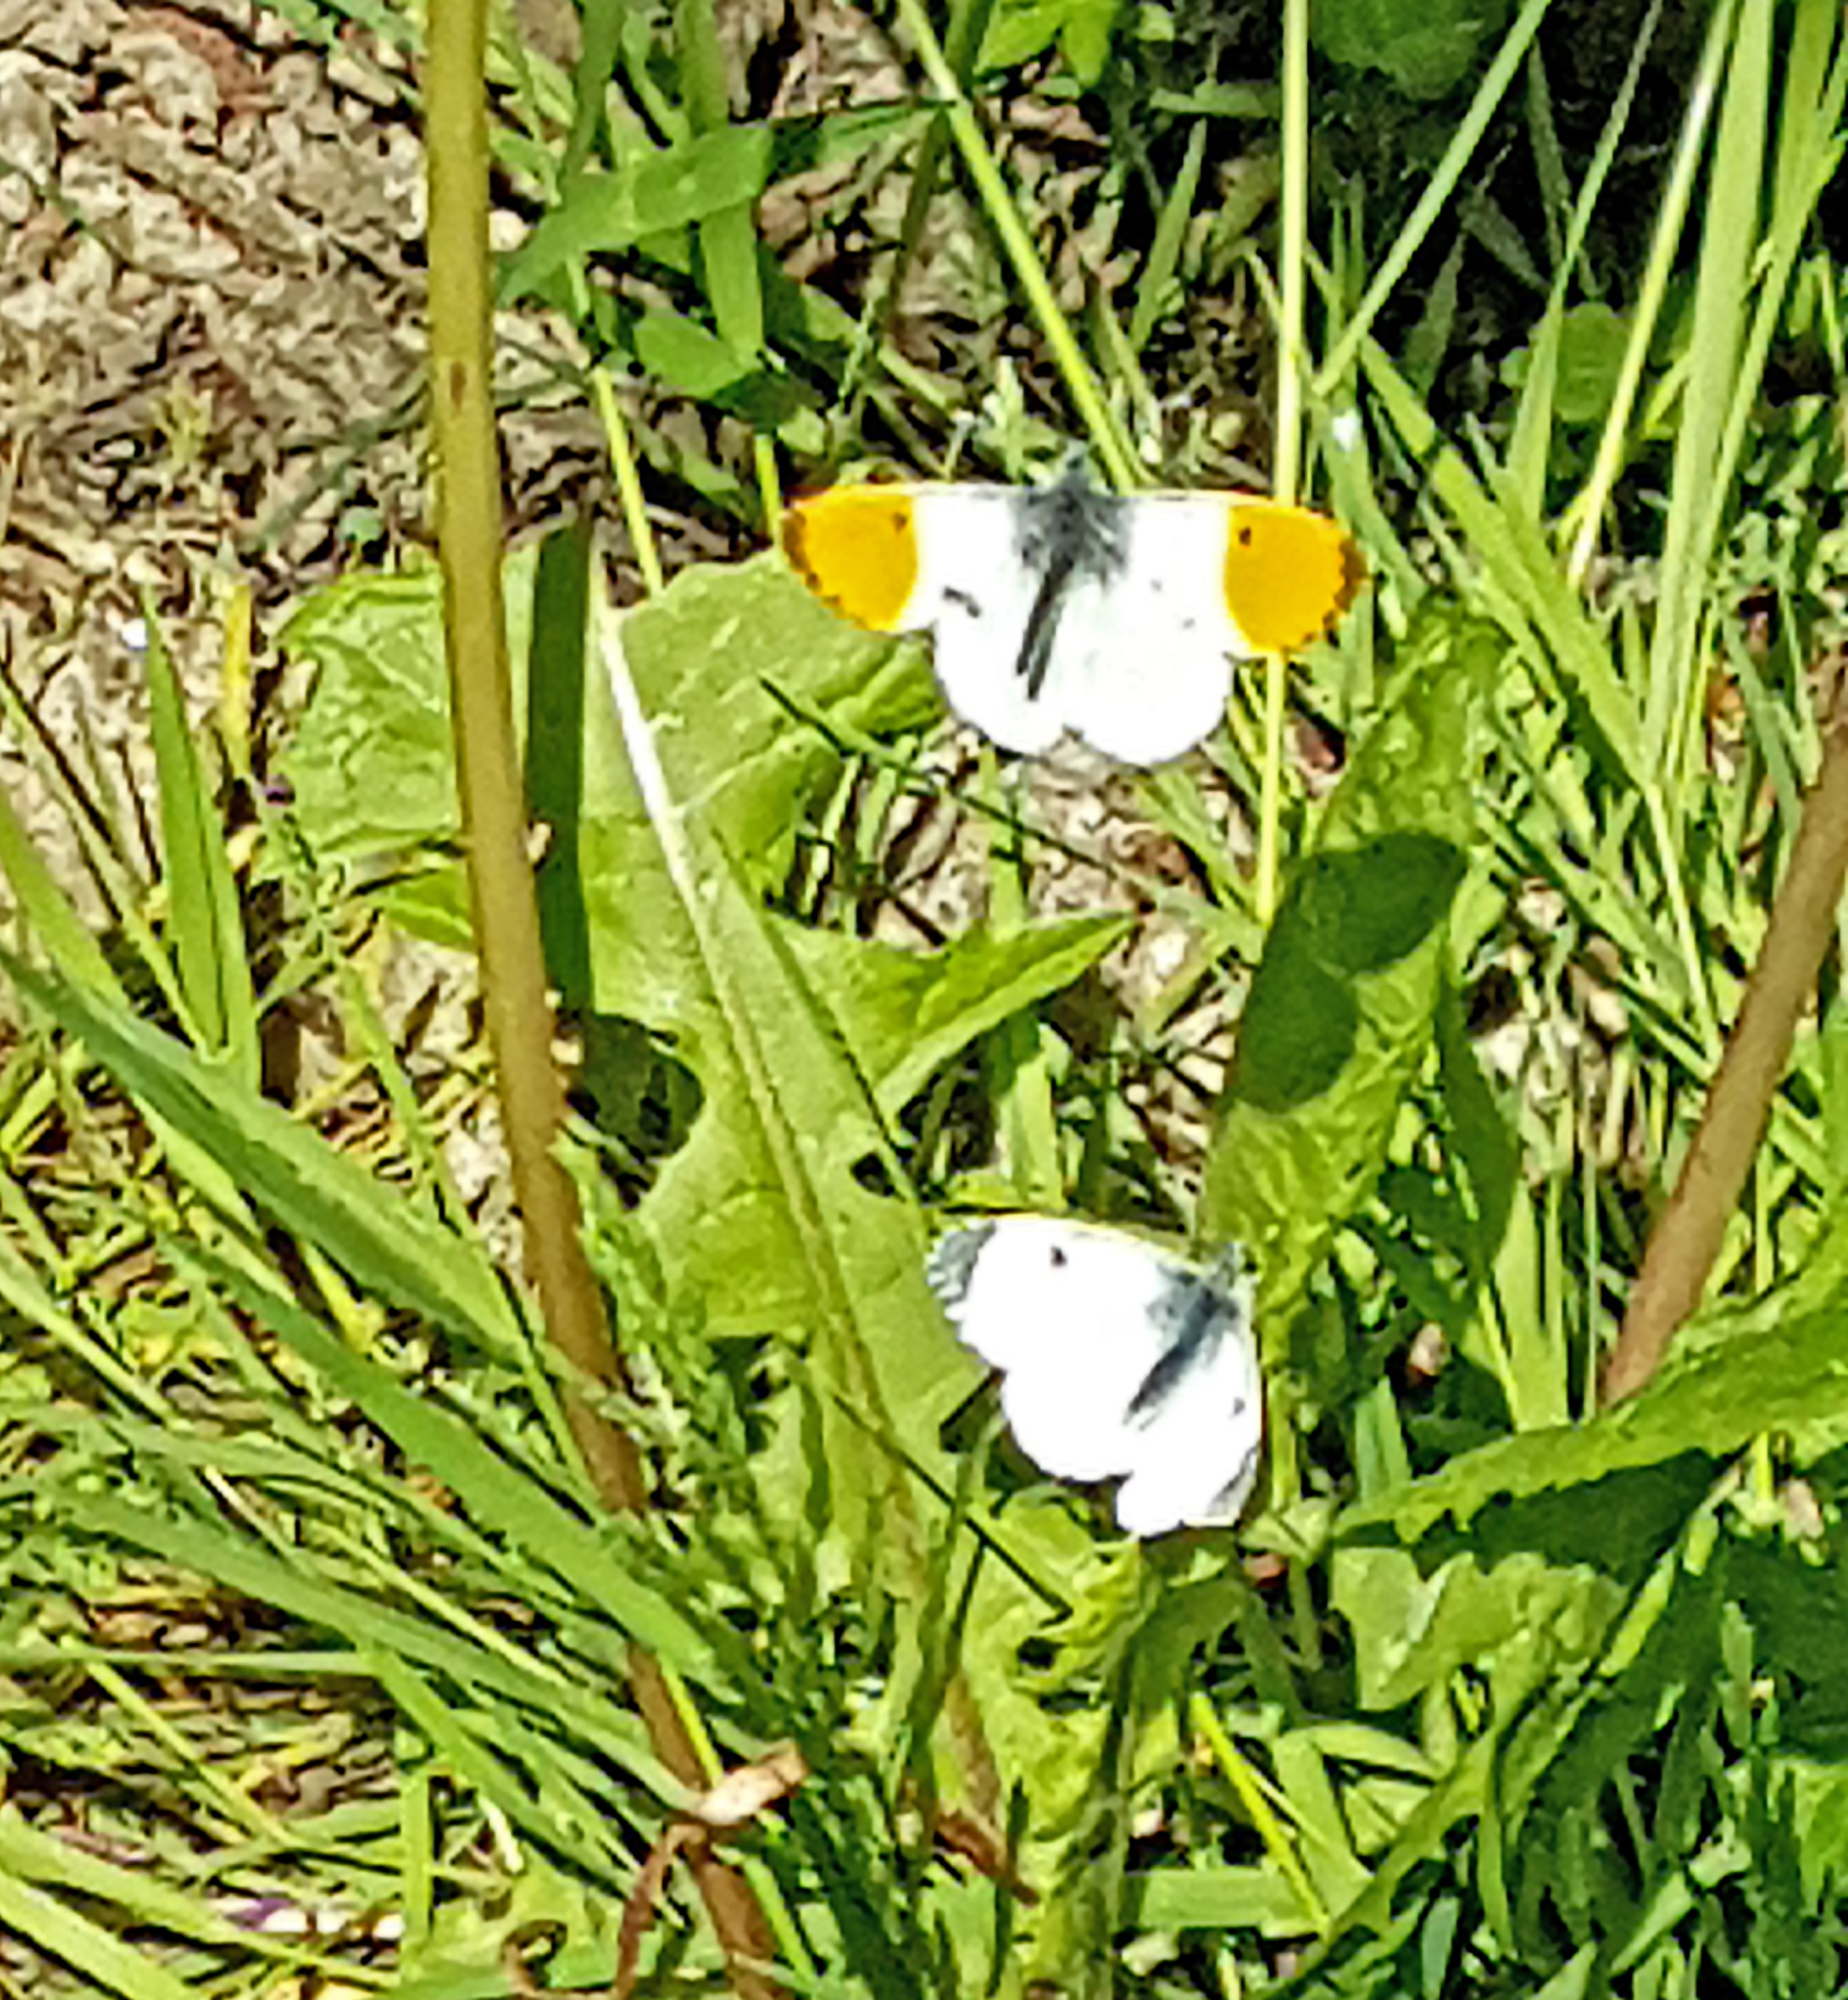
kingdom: Animalia
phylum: Arthropoda
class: Insecta
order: Lepidoptera
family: Pieridae
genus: Anthocharis
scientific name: Anthocharis cardamines
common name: Aurora
